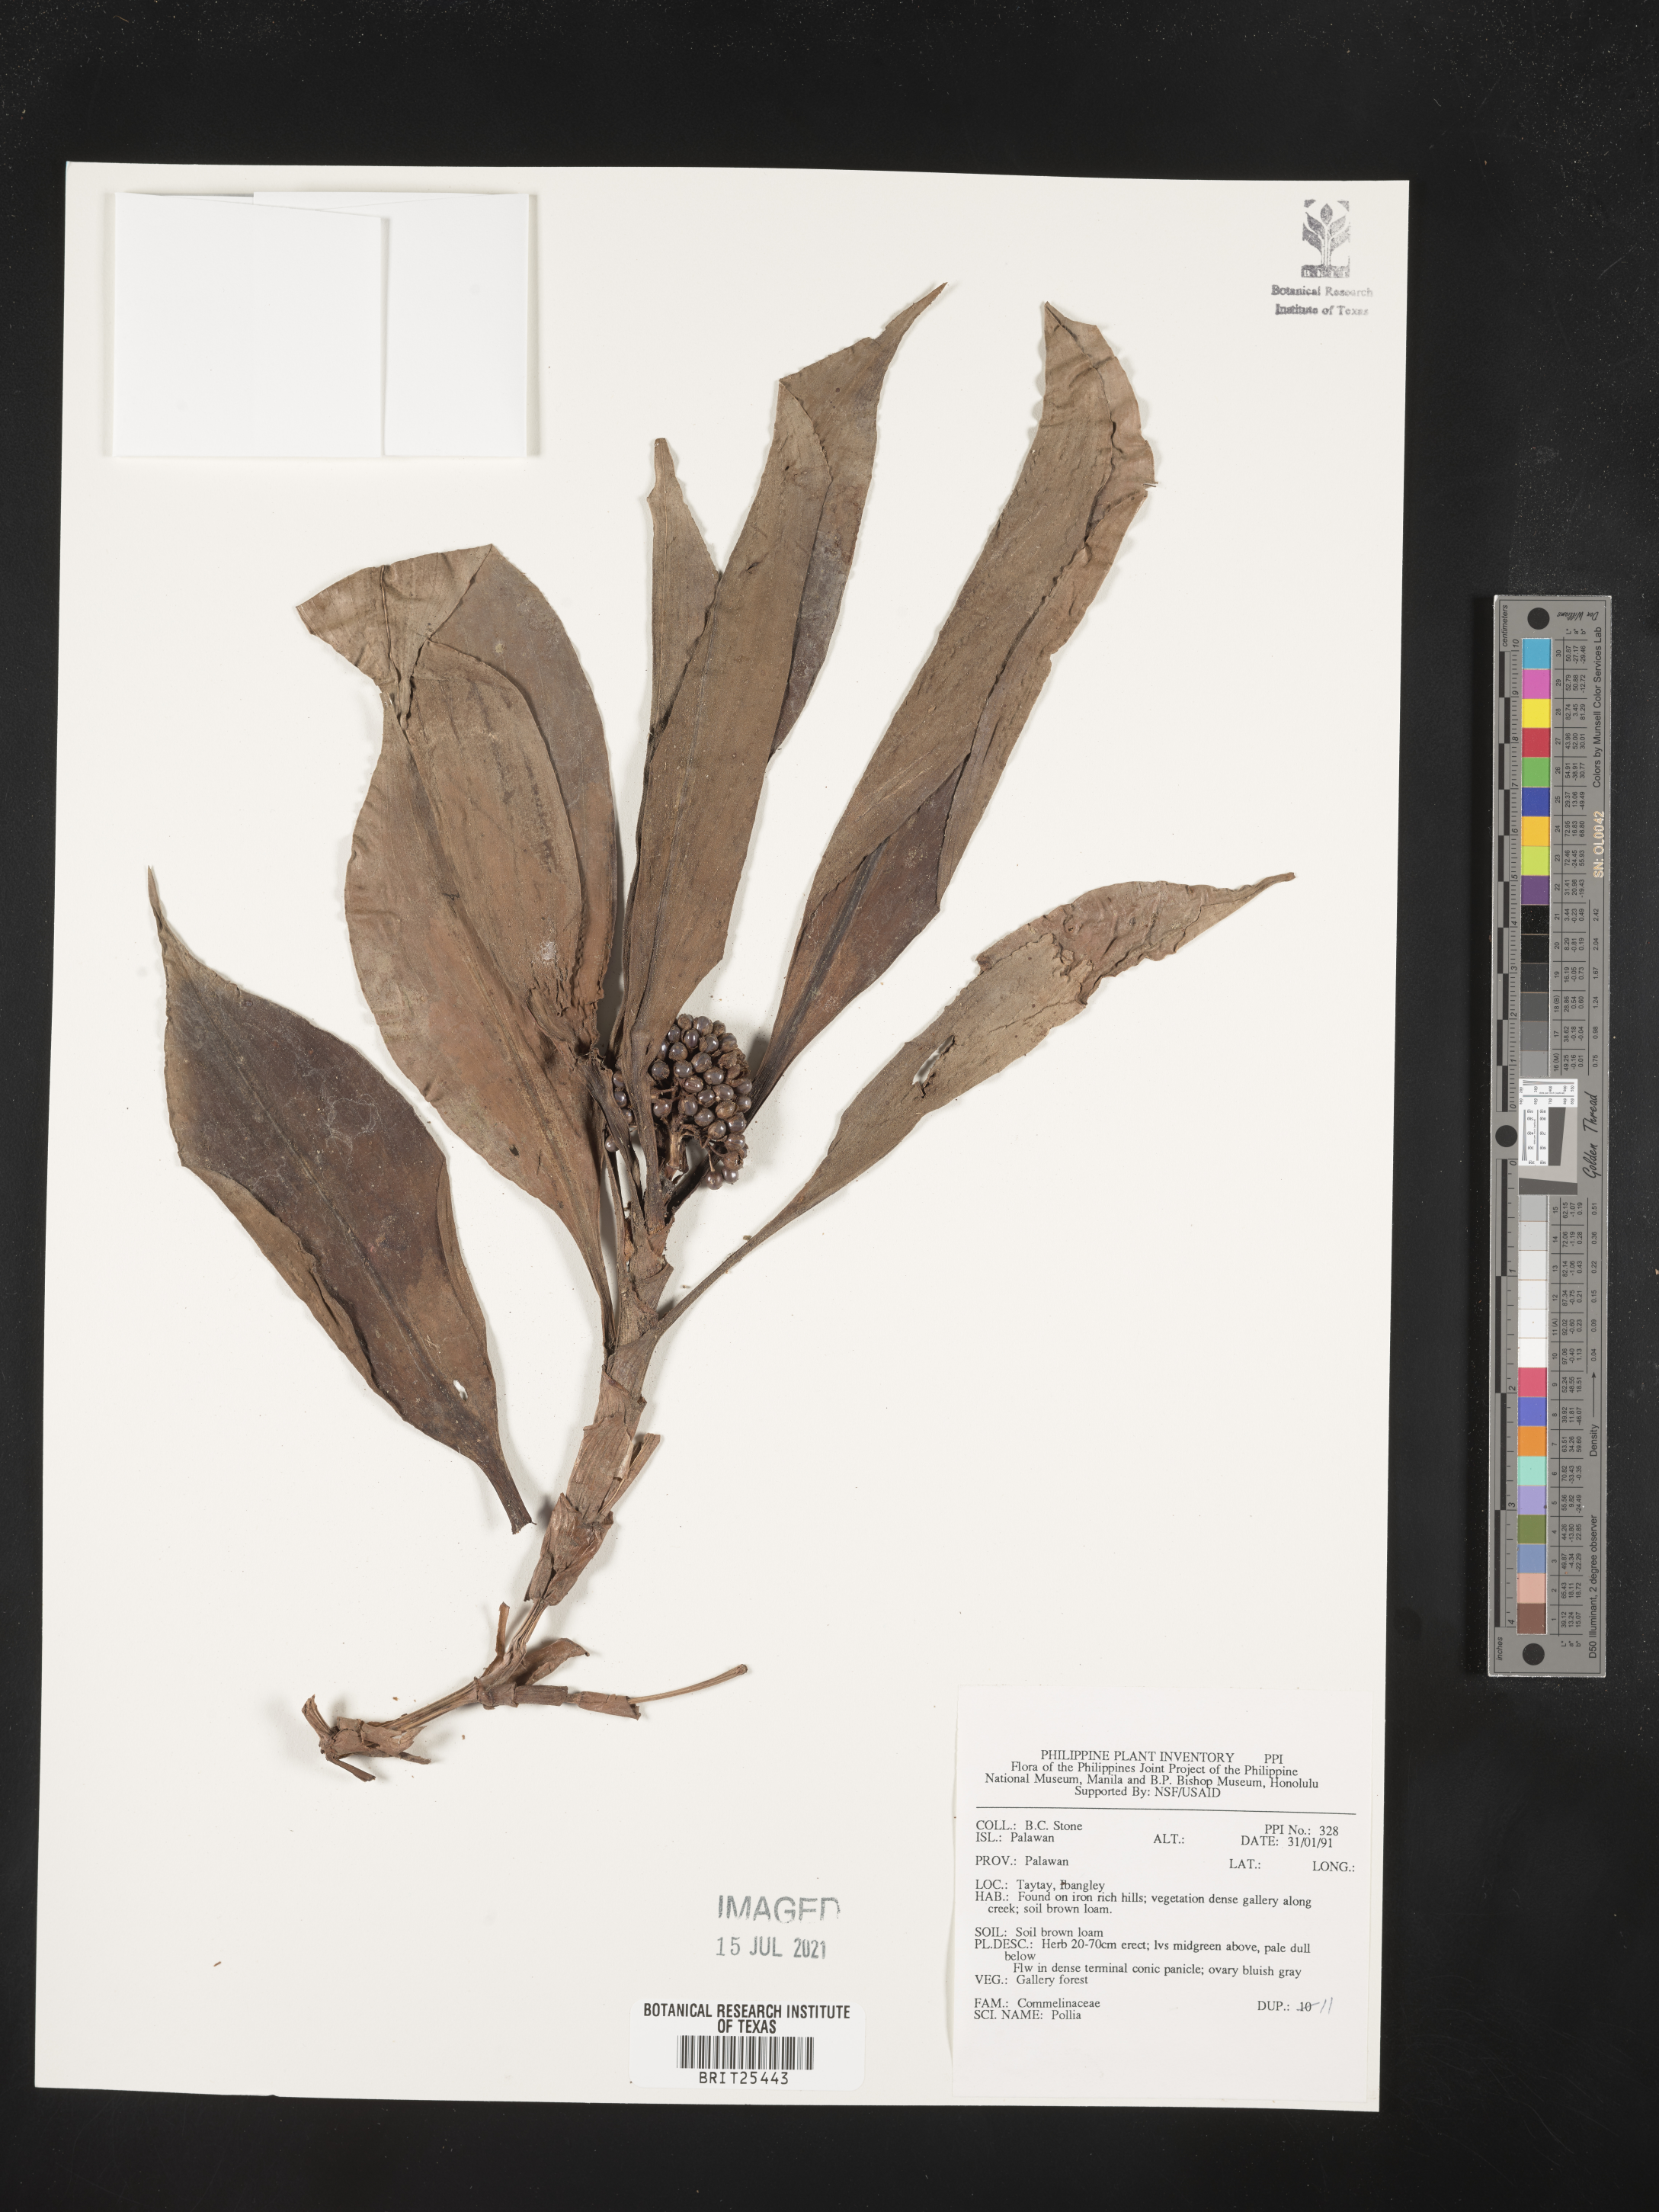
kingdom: Plantae
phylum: Tracheophyta
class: Liliopsida
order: Commelinales
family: Commelinaceae
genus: Pollia
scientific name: Pollia
